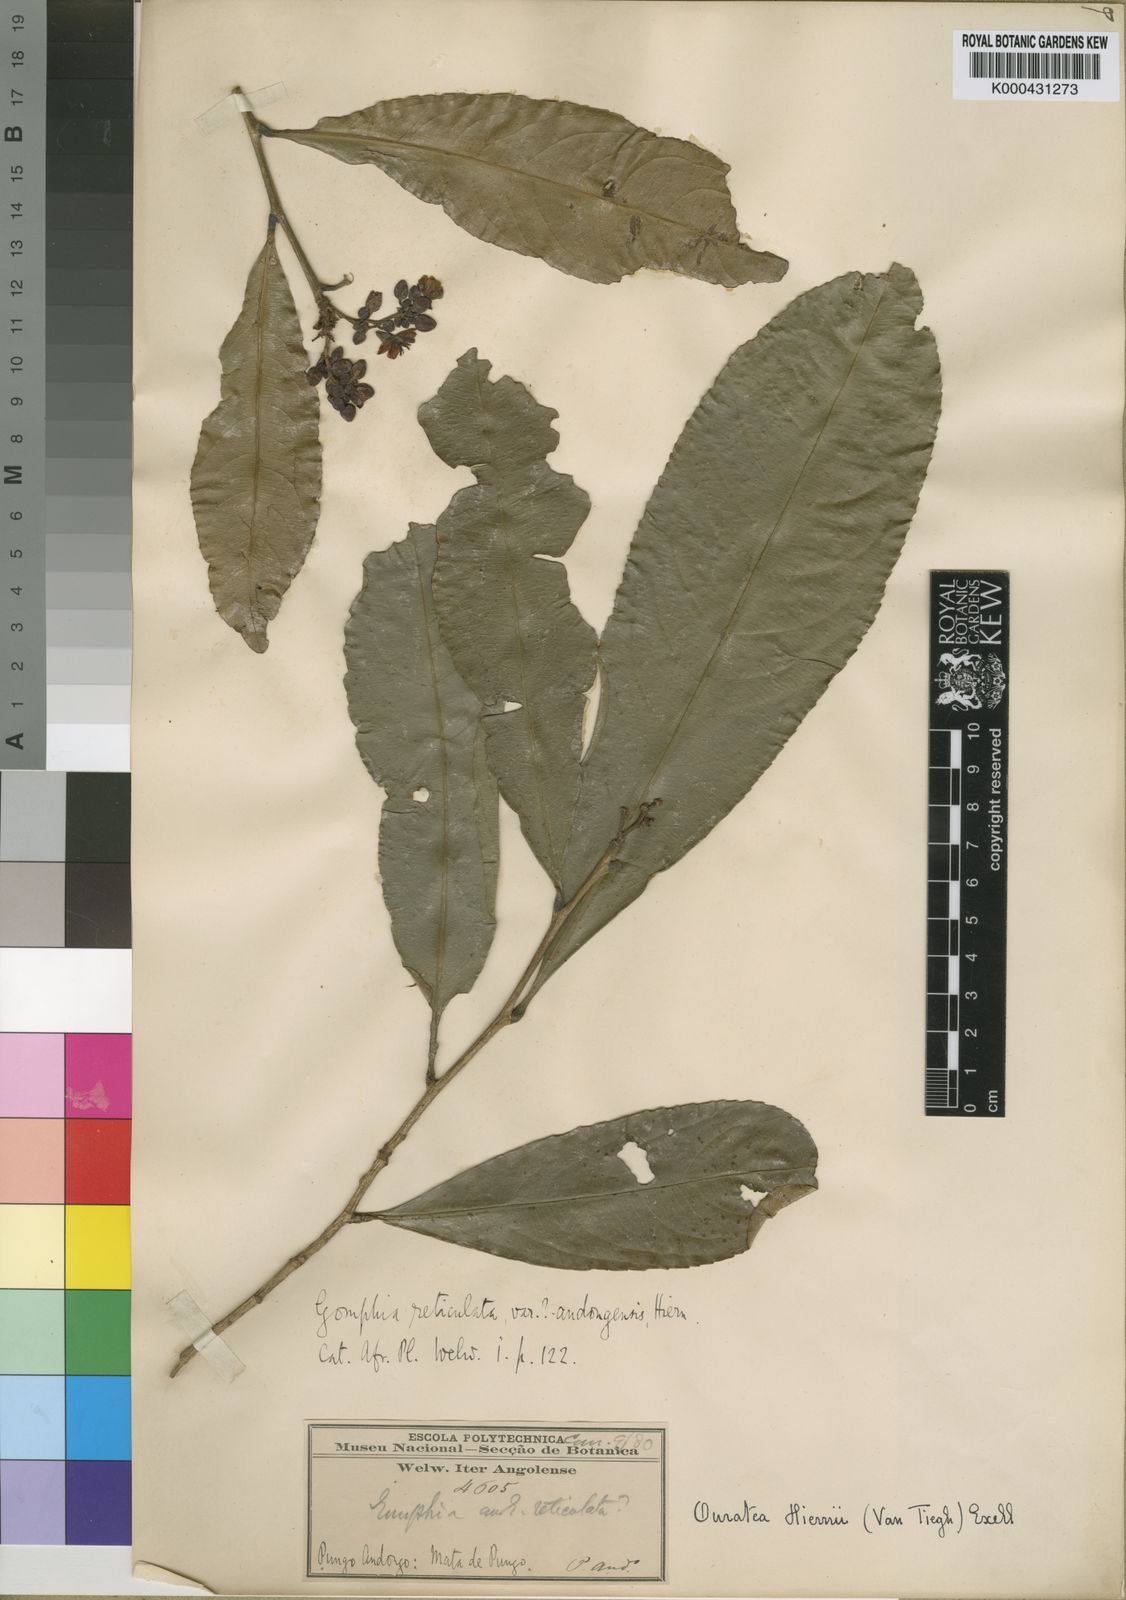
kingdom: Plantae
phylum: Tracheophyta
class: Magnoliopsida
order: Malpighiales
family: Ochnaceae
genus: Campylospermum
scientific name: Campylospermum
